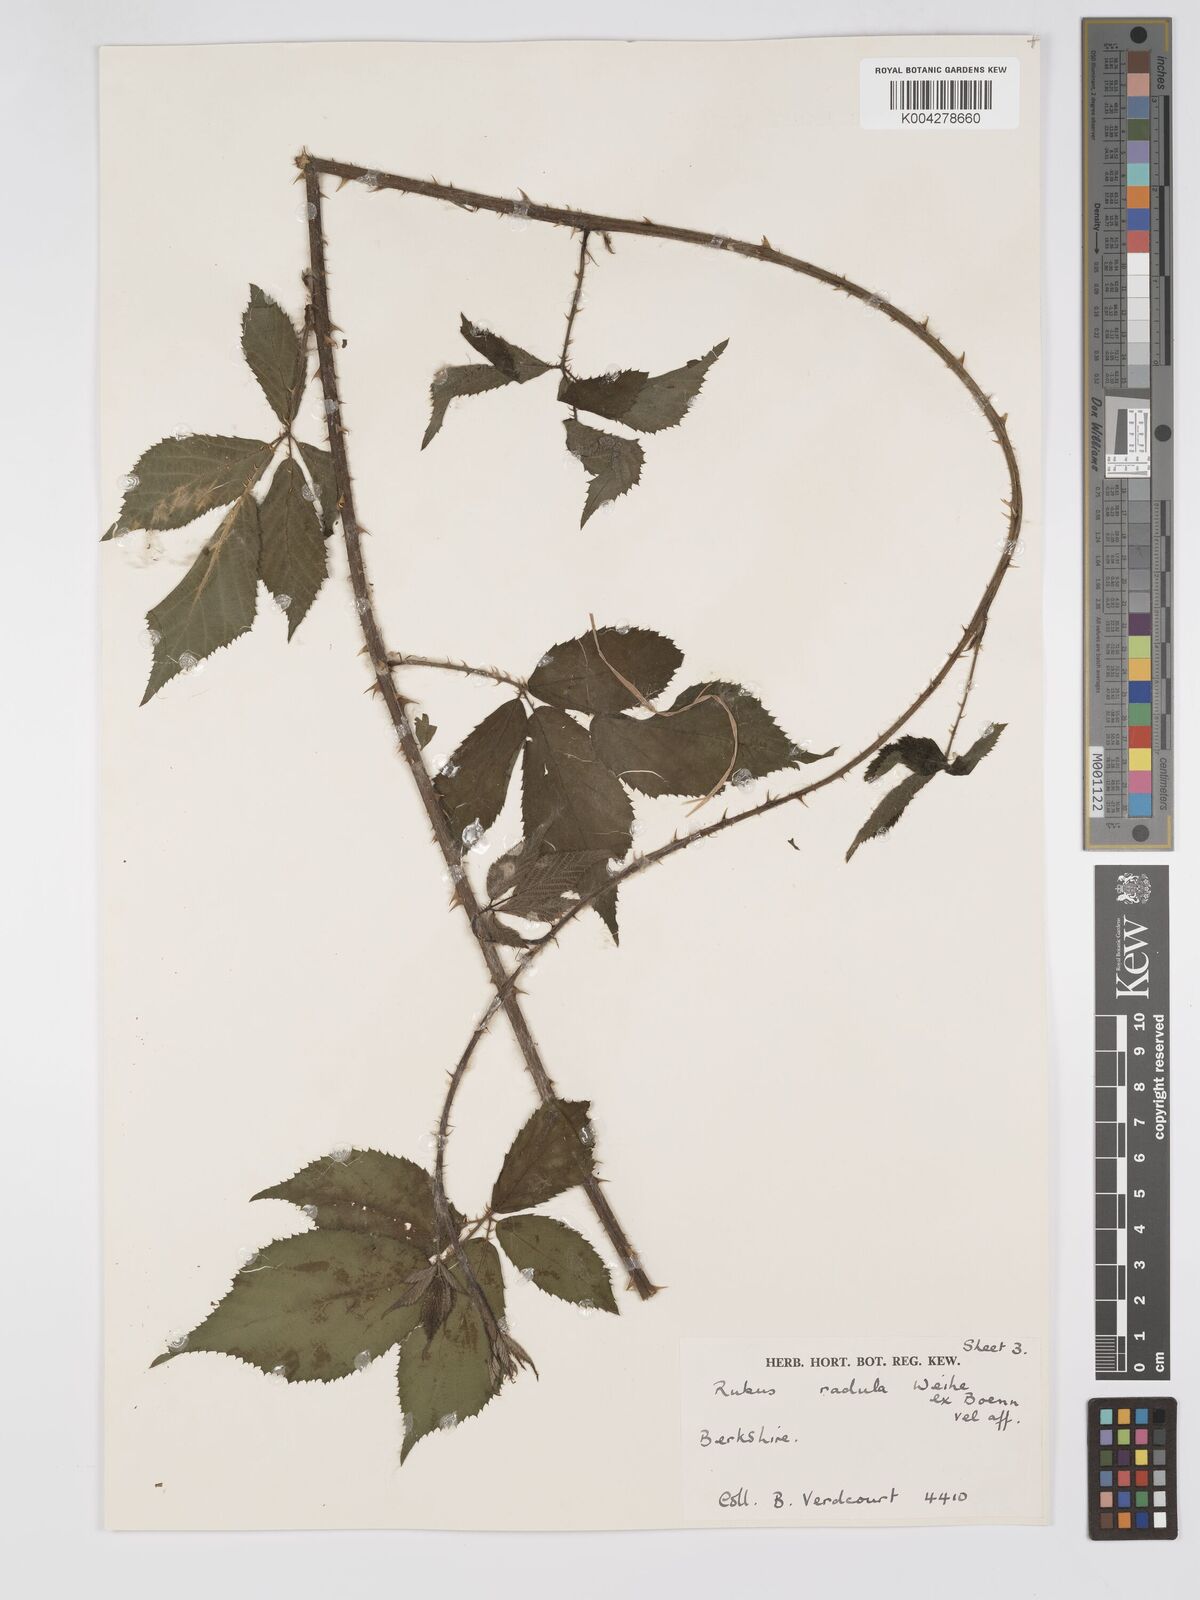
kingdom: Plantae
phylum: Tracheophyta
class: Magnoliopsida
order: Rosales
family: Rosaceae
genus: Rubus
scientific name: Rubus radula
